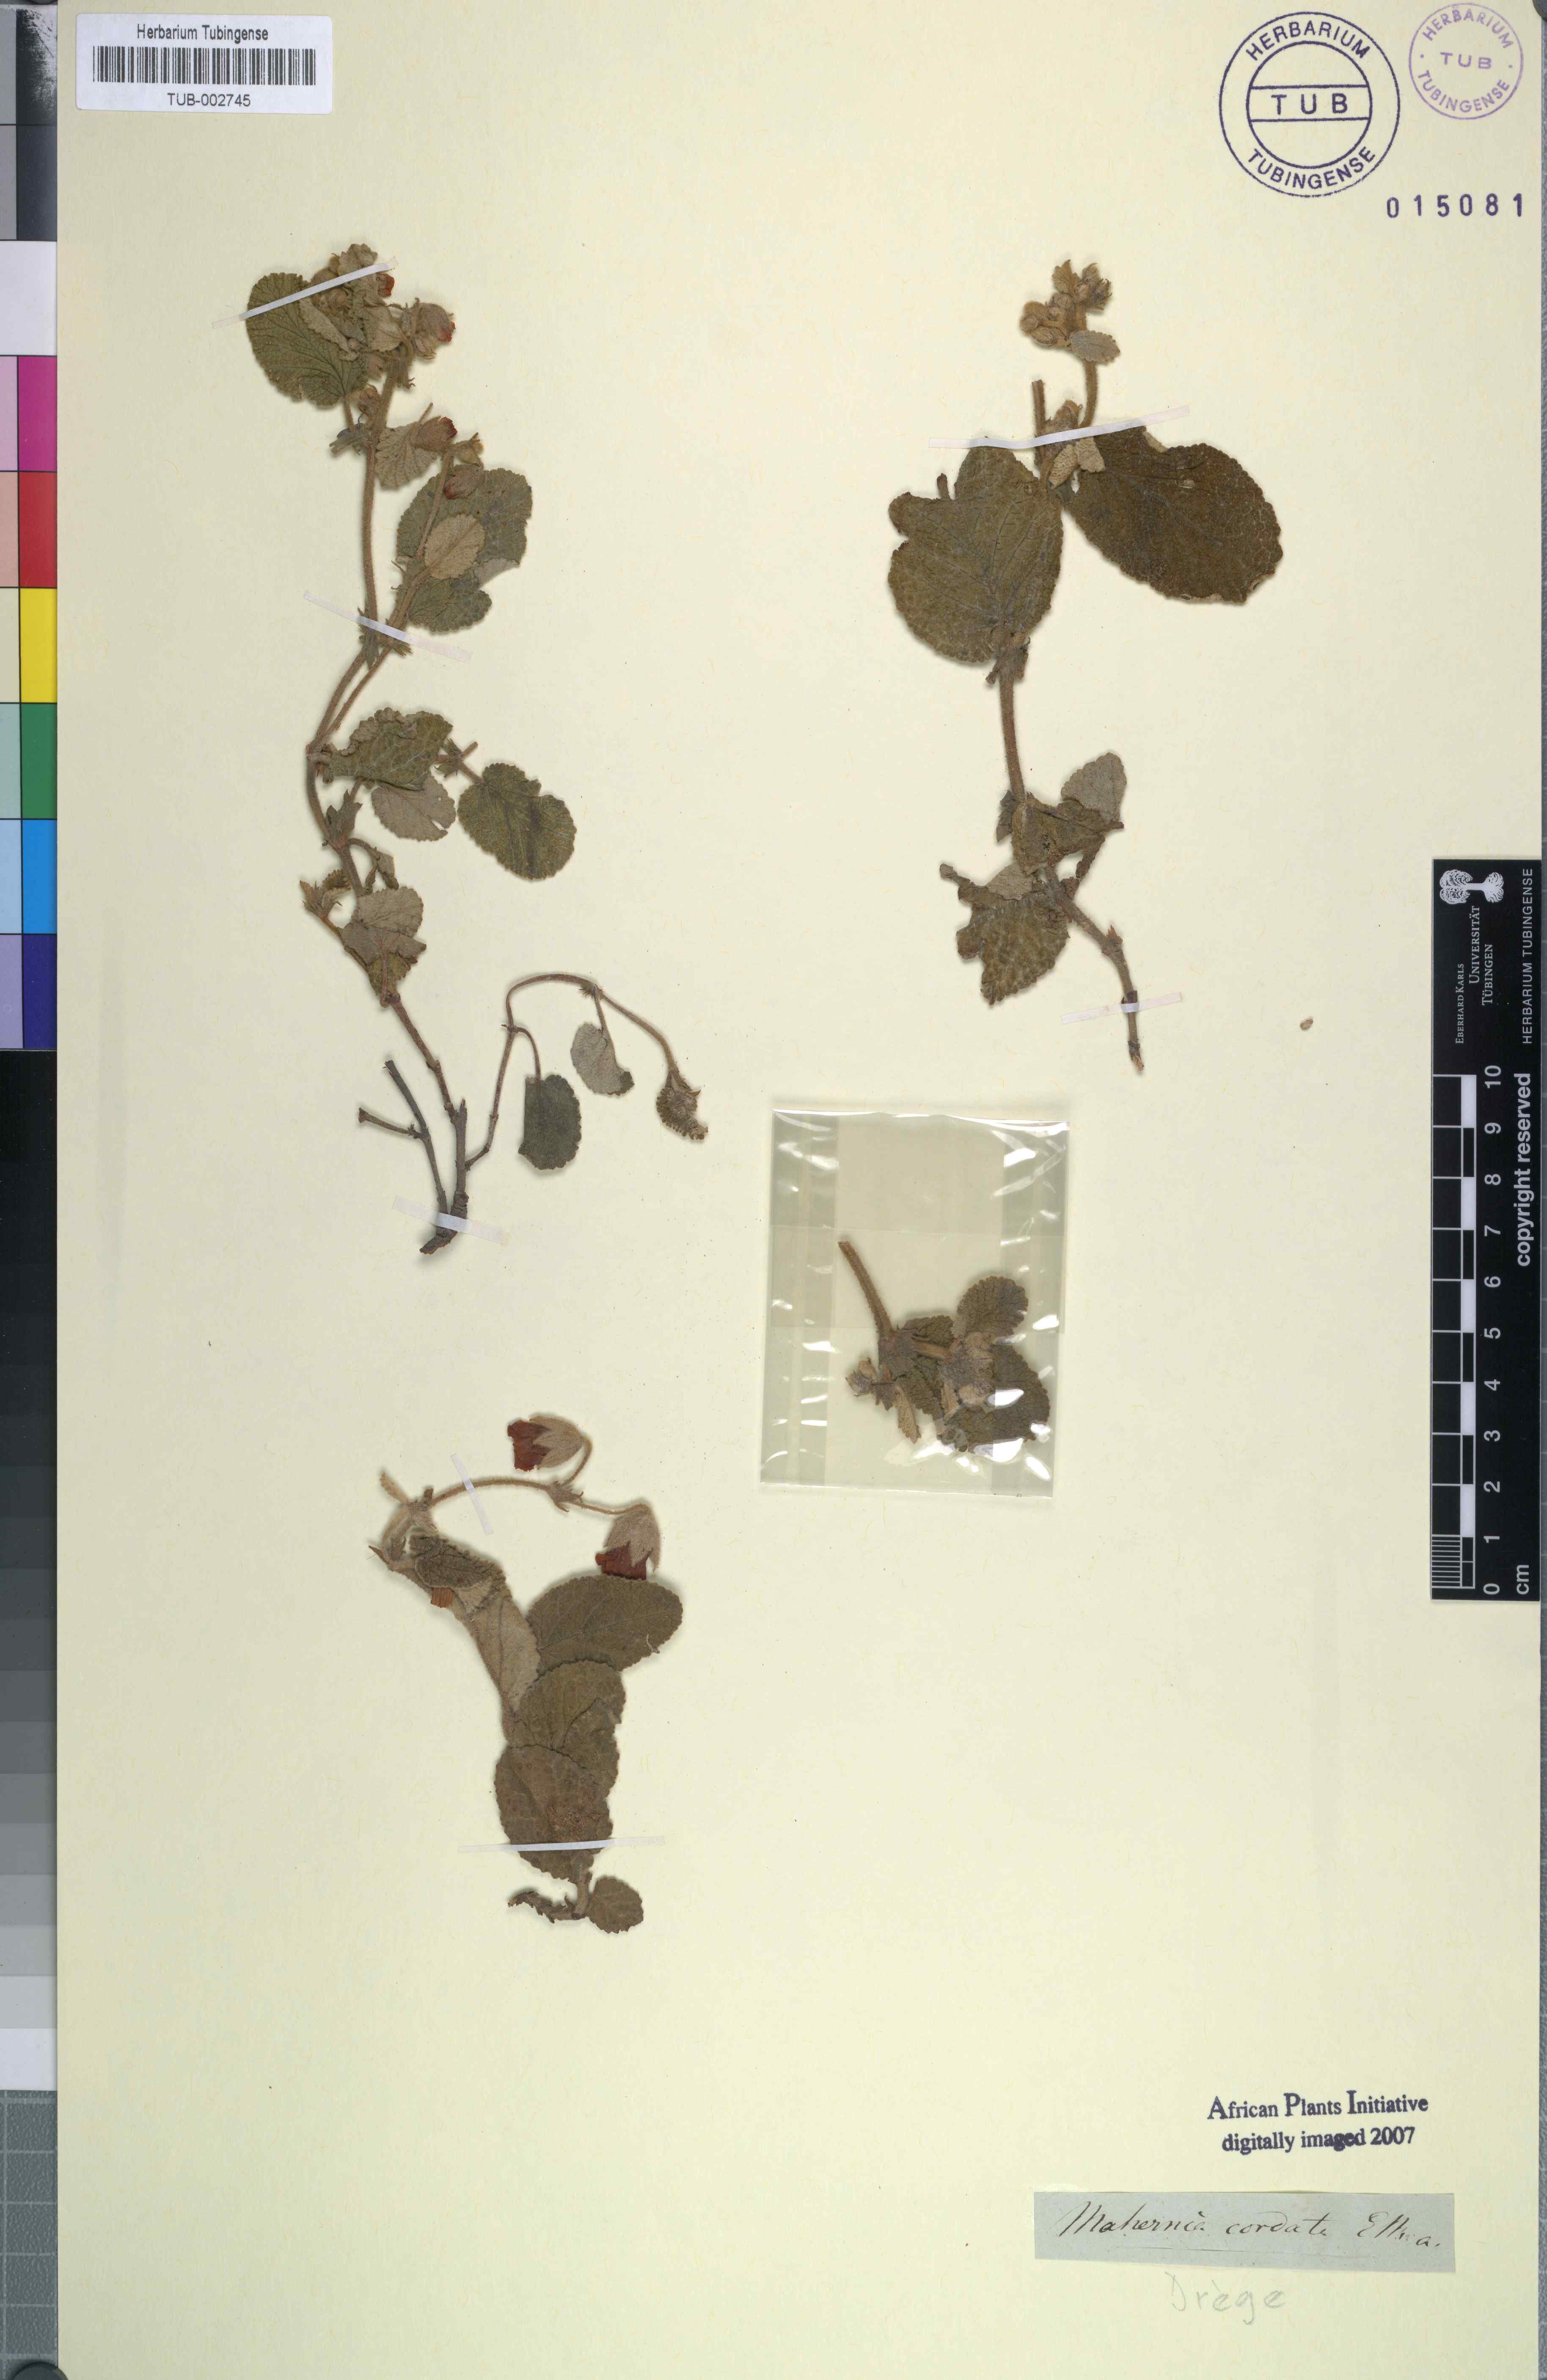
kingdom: Plantae
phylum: Tracheophyta
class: Magnoliopsida
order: Malvales
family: Malvaceae
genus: Hermannia
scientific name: Hermannia geniculata
